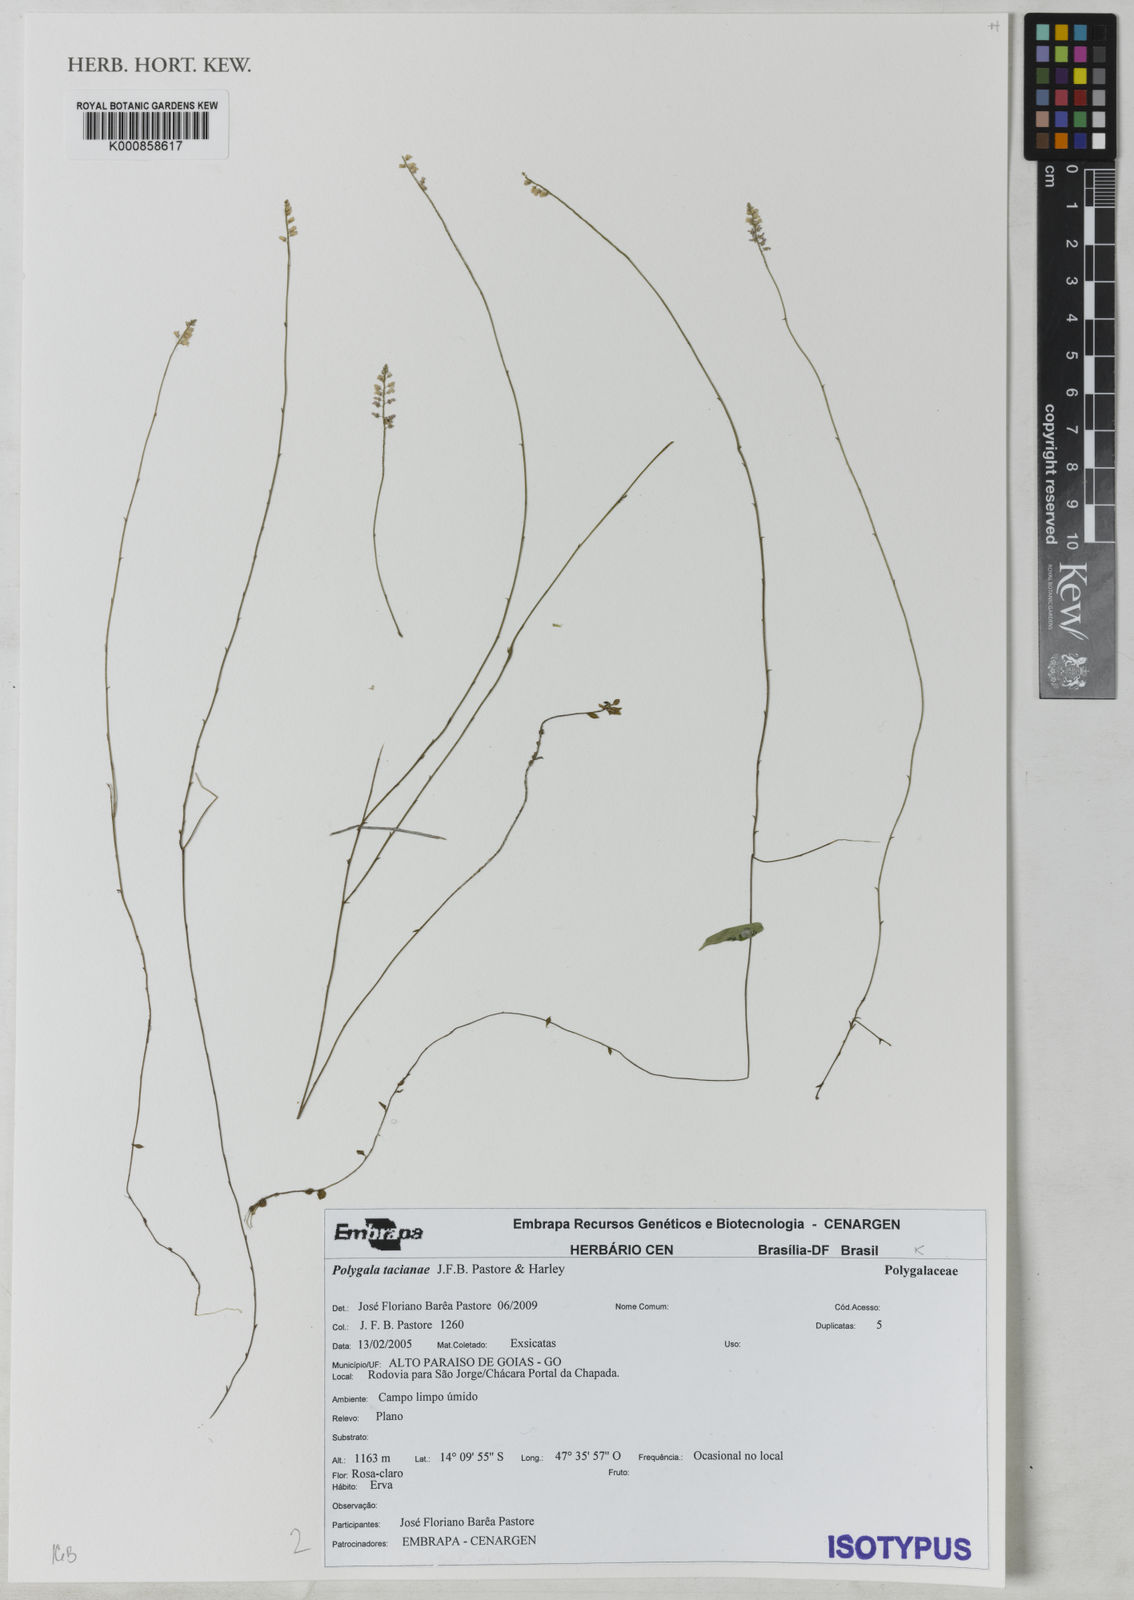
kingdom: Plantae
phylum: Tracheophyta
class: Magnoliopsida
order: Fabales
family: Polygalaceae
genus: Polygala
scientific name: Polygala tacianae
